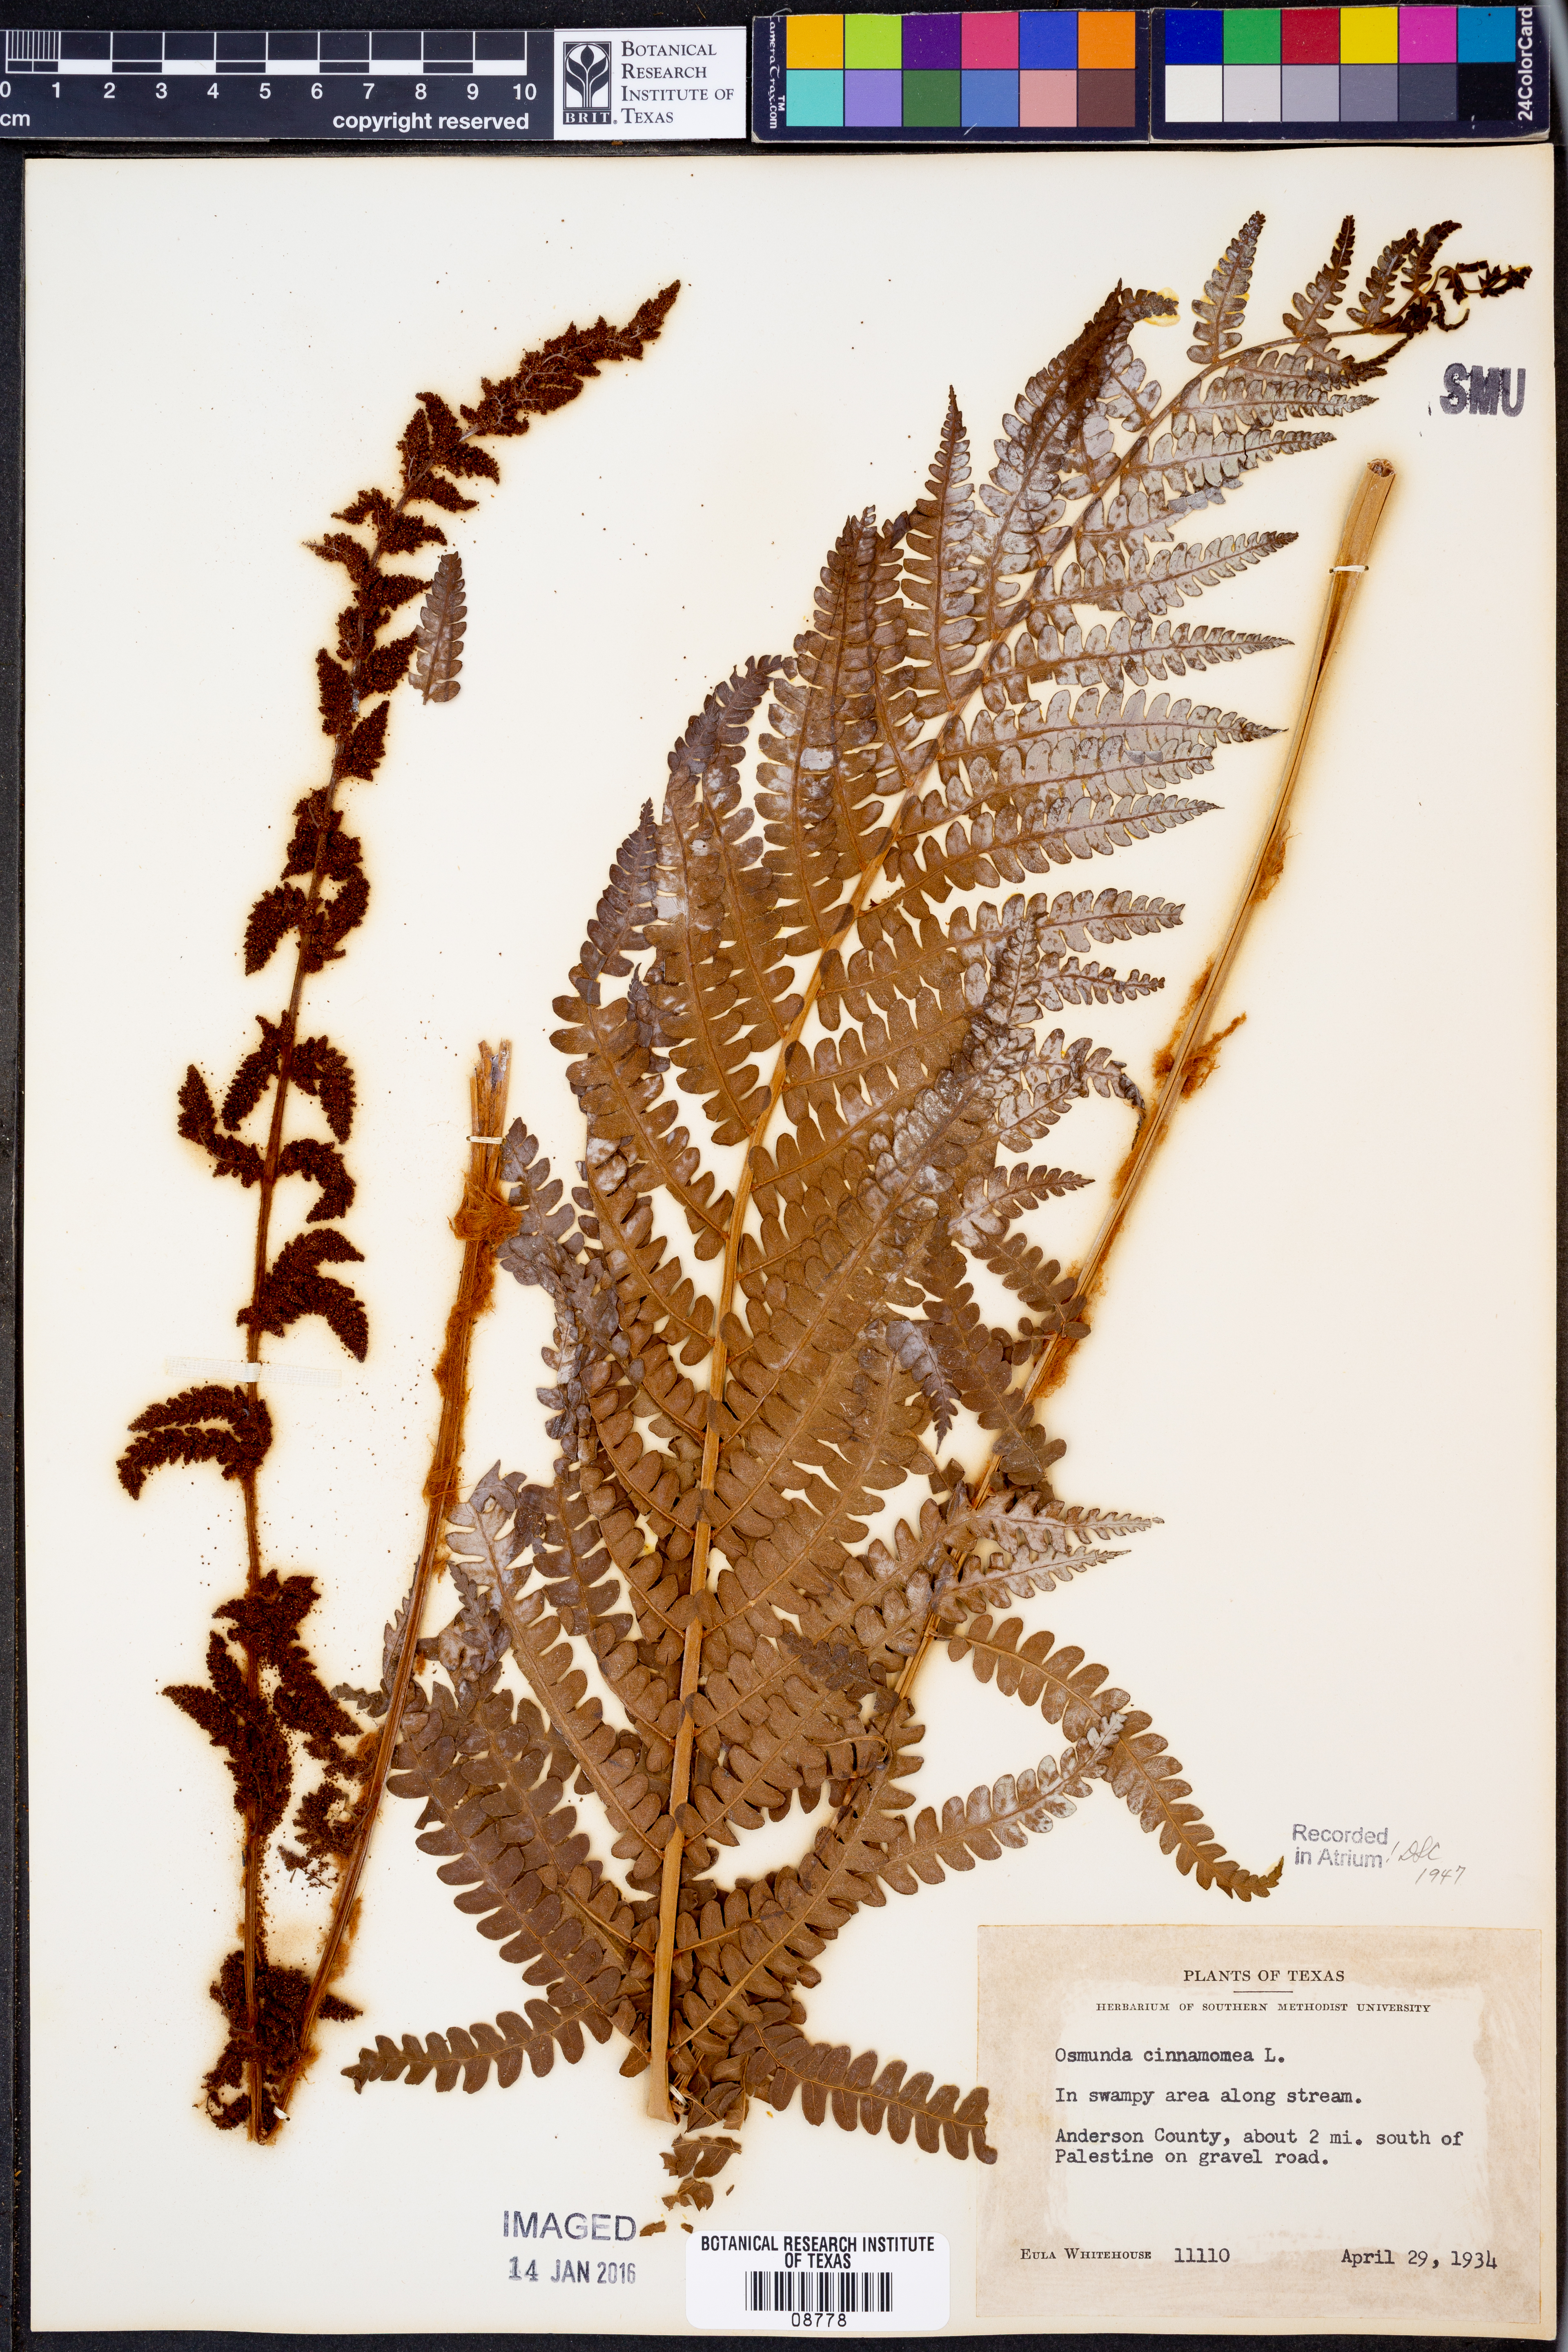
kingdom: Plantae
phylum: Tracheophyta
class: Polypodiopsida
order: Osmundales
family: Osmundaceae
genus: Osmundastrum
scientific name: Osmundastrum cinnamomeum
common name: Cinnamon fern
